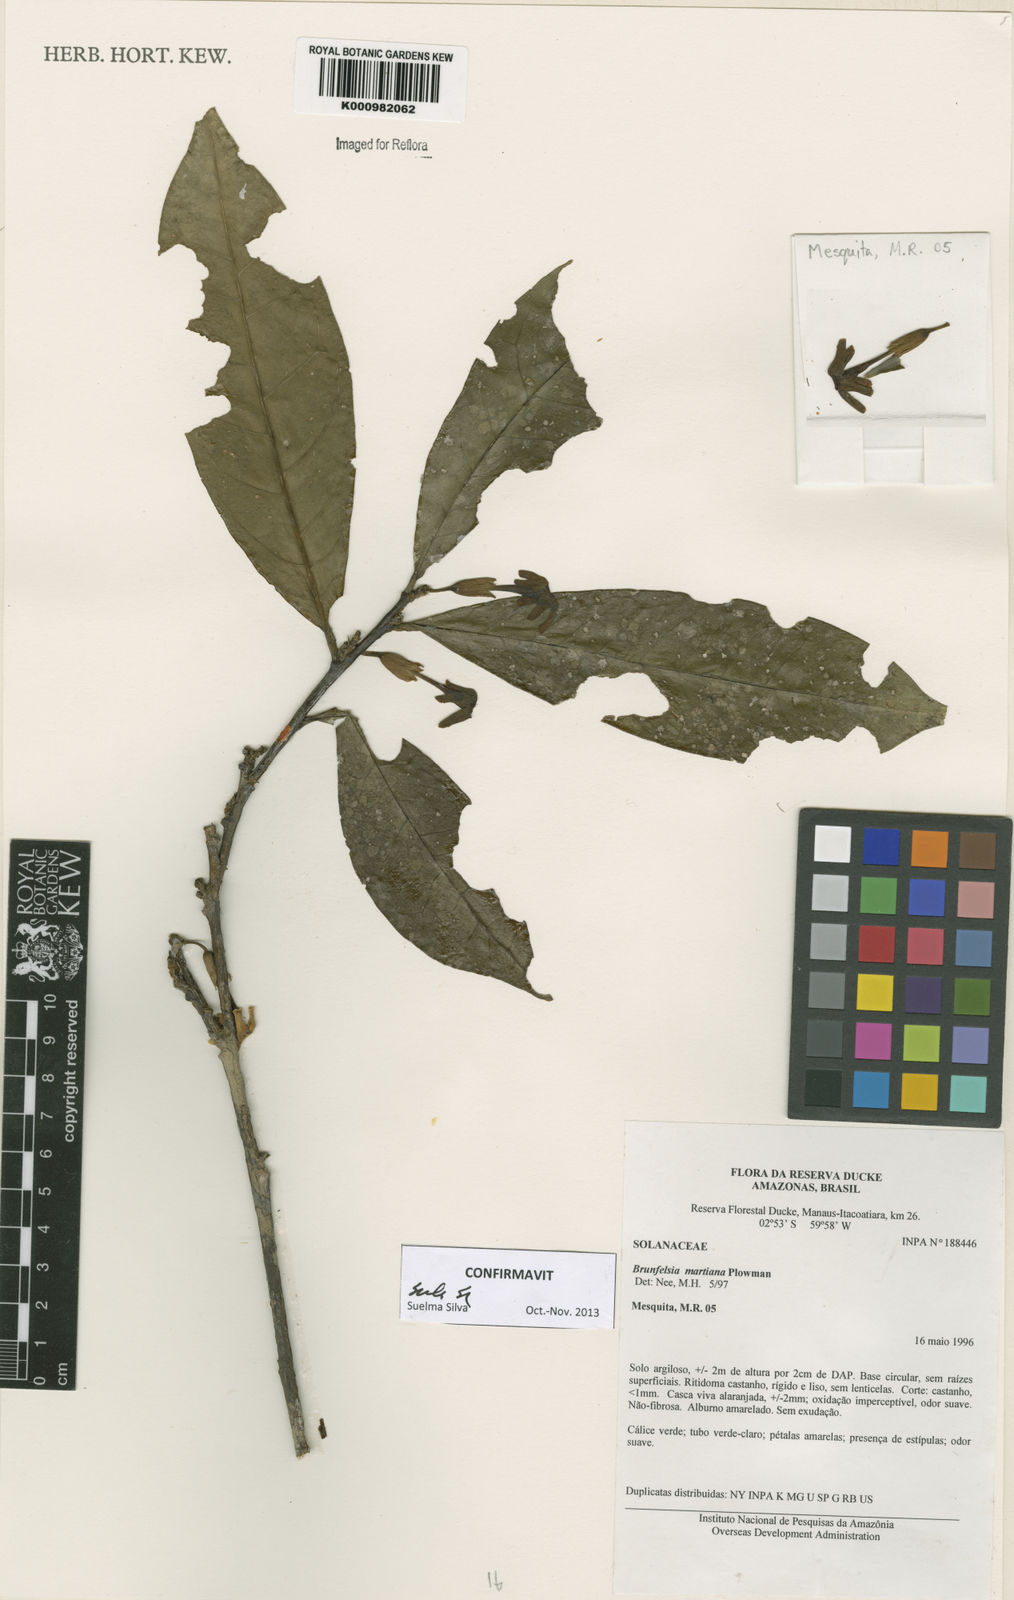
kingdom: Plantae
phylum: Tracheophyta
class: Magnoliopsida
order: Solanales
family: Solanaceae
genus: Brunfelsia
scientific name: Brunfelsia martiana
